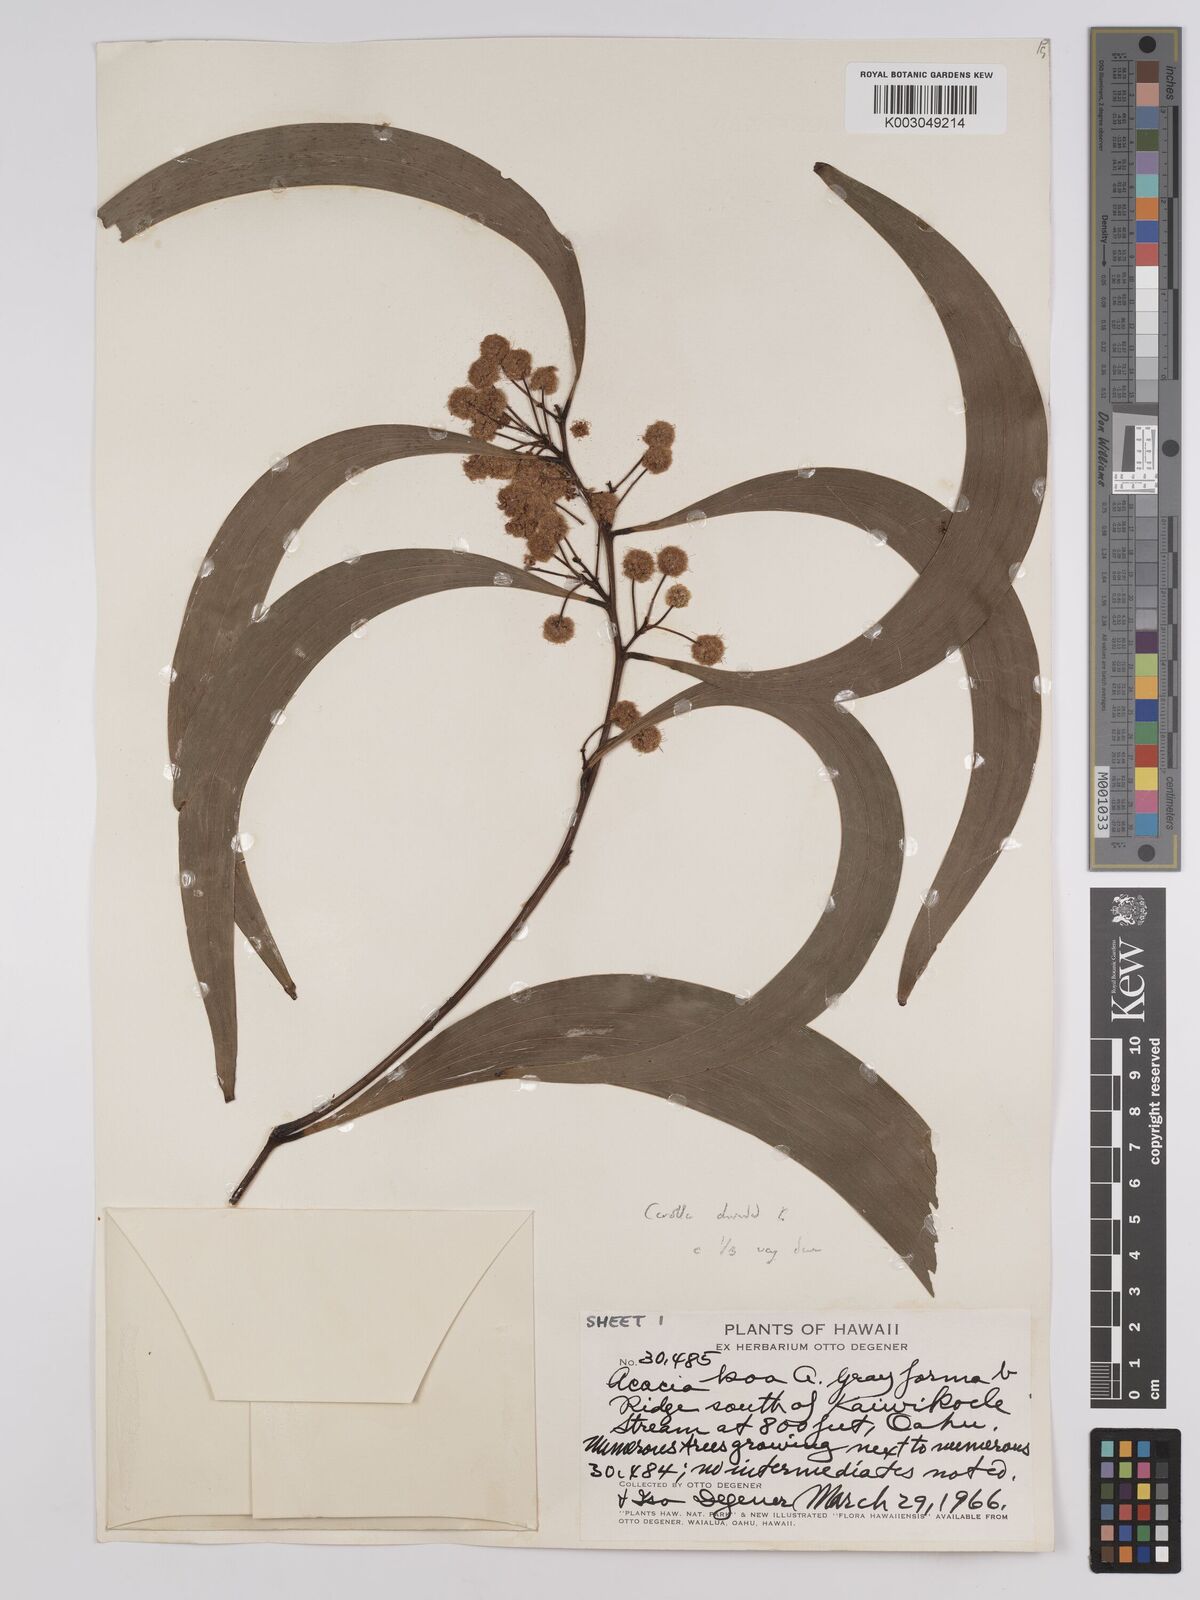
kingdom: Plantae
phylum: Tracheophyta
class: Magnoliopsida
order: Fabales
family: Fabaceae
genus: Acacia
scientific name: Acacia koa
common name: Gray koa
